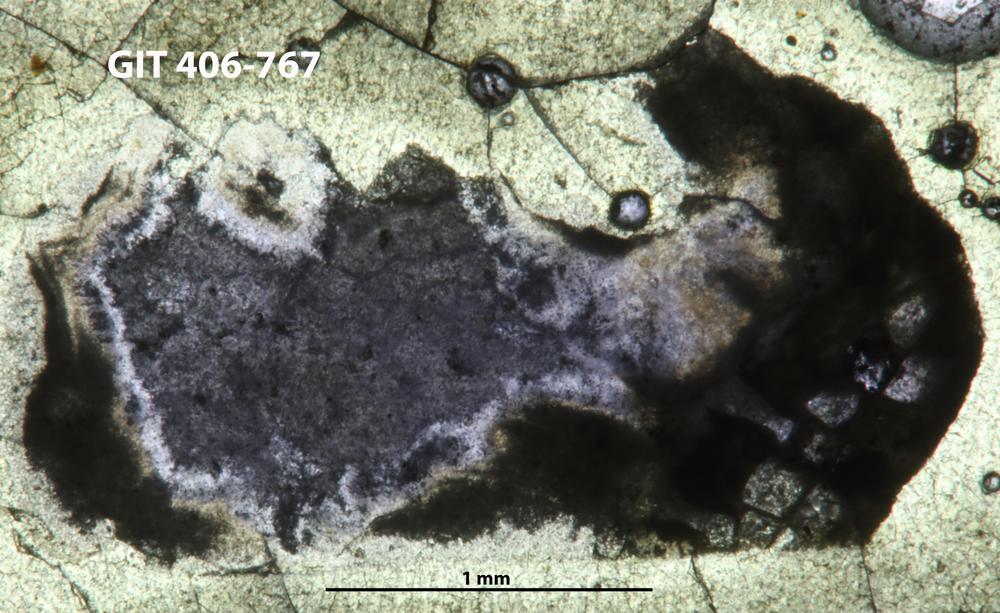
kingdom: Animalia
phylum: Cnidaria
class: Anthozoa
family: Palaeocyclidae
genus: Primitophyllum
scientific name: Primitophyllum primum
